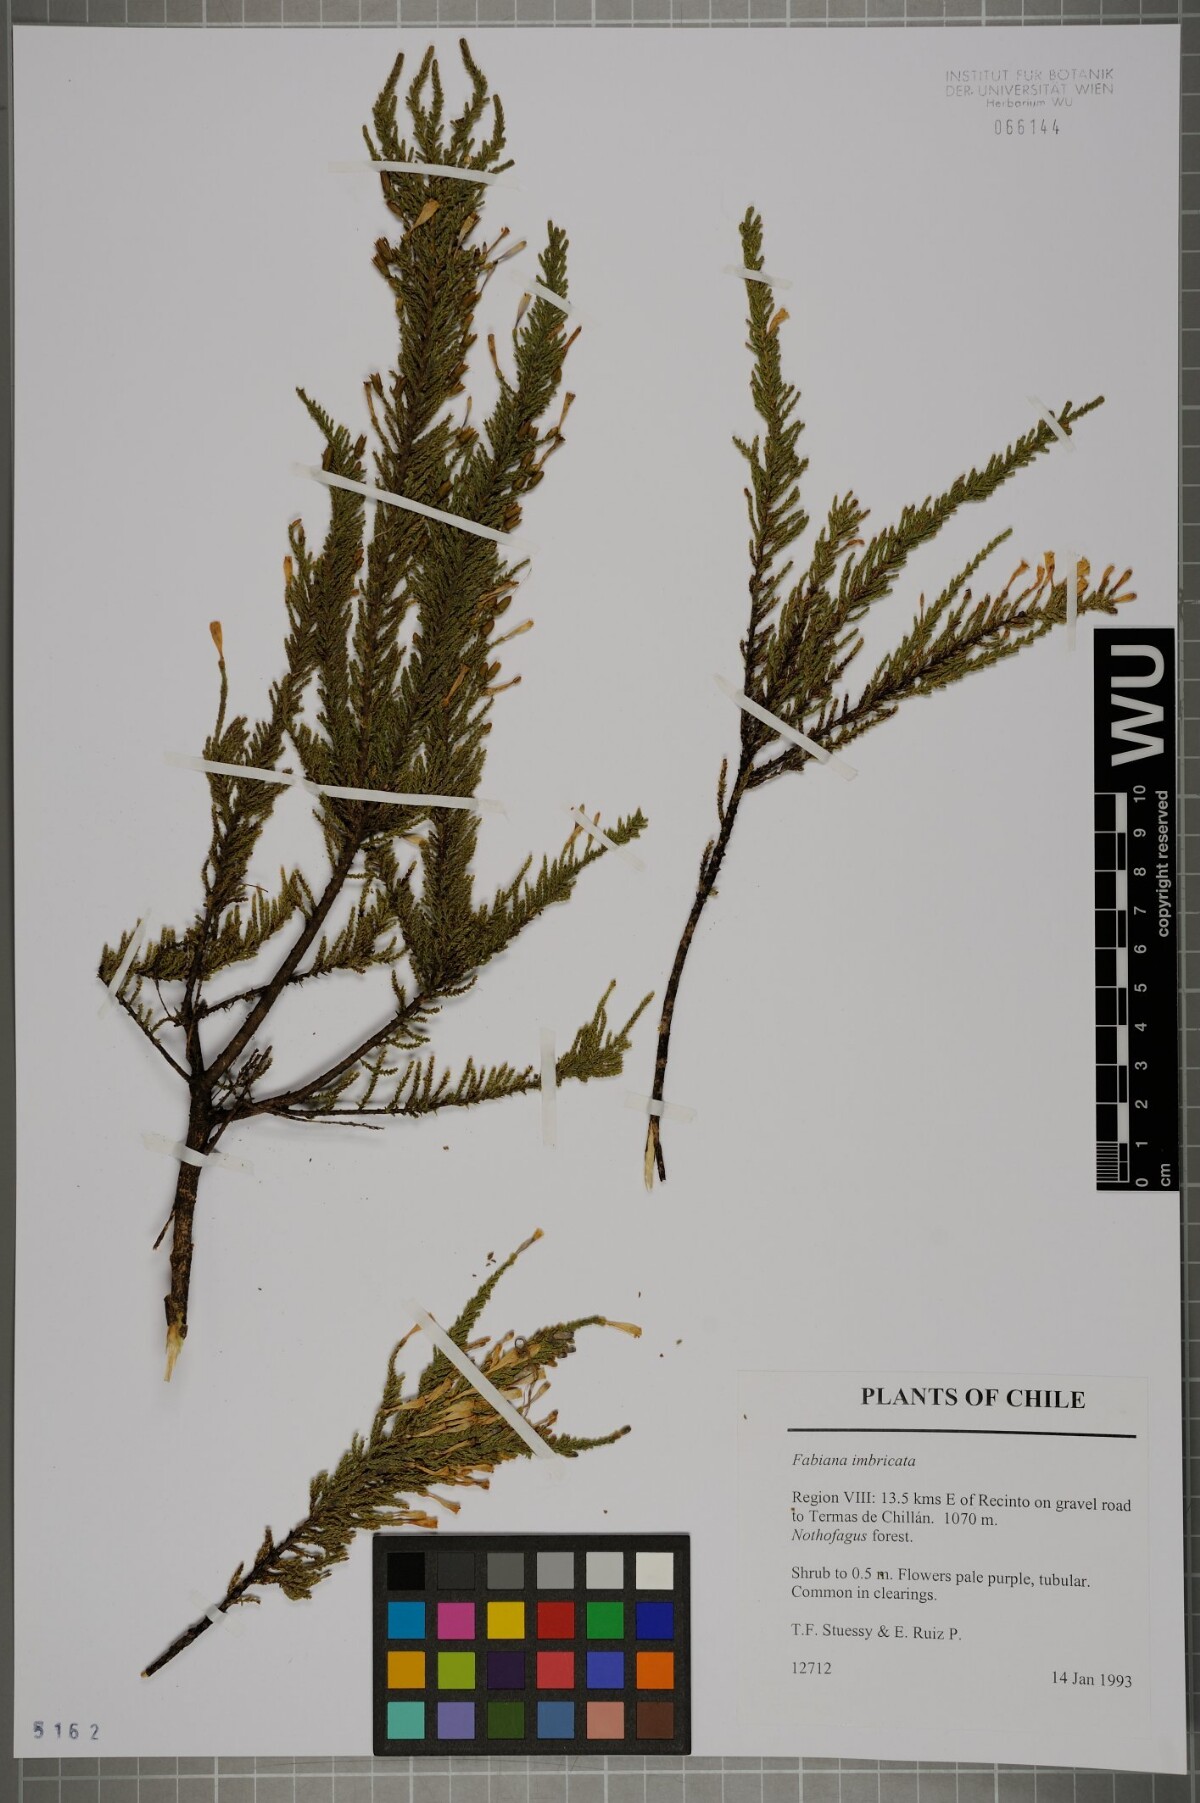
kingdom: Plantae
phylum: Tracheophyta
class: Magnoliopsida
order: Solanales
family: Solanaceae
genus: Fabiana
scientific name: Fabiana imbricata
